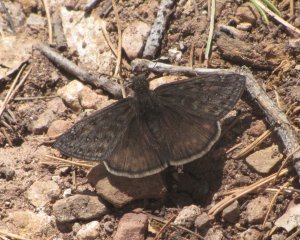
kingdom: Animalia
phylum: Arthropoda
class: Insecta
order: Lepidoptera
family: Hesperiidae
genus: Gesta
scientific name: Gesta
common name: Juvenal's Duskywing
